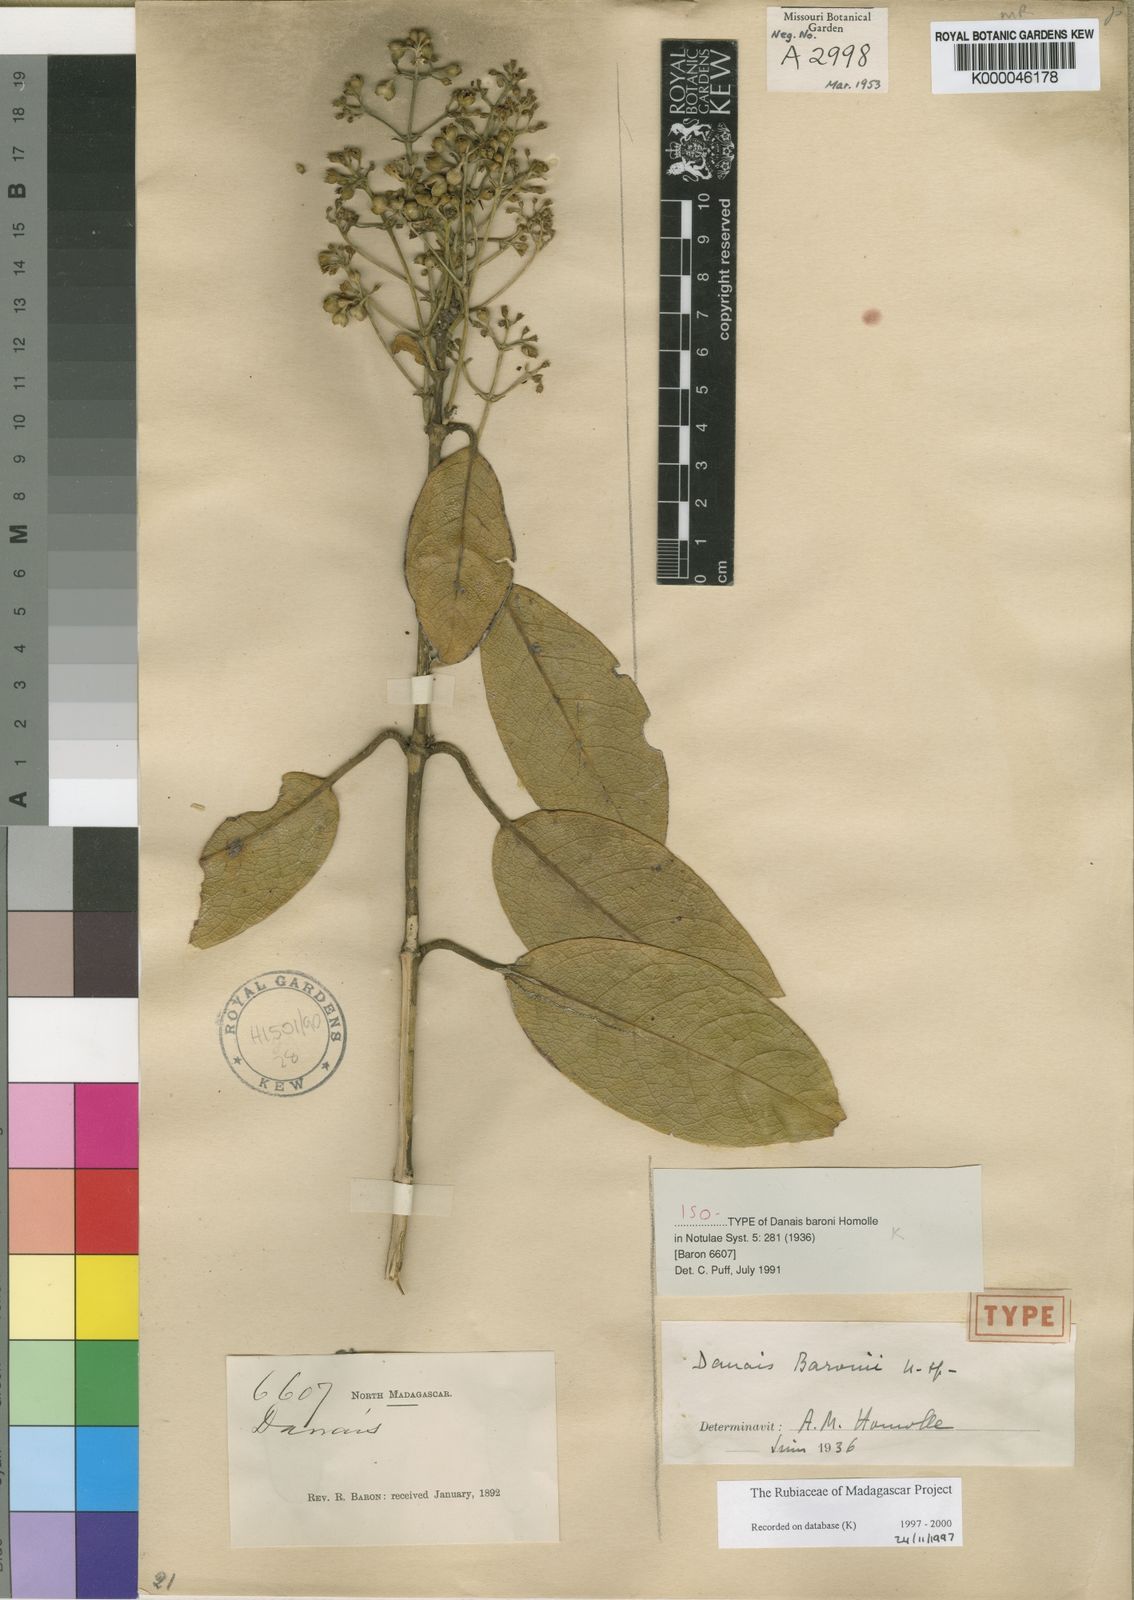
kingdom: Plantae
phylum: Tracheophyta
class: Magnoliopsida
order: Gentianales
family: Rubiaceae
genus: Danais
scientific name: Danais baronii
